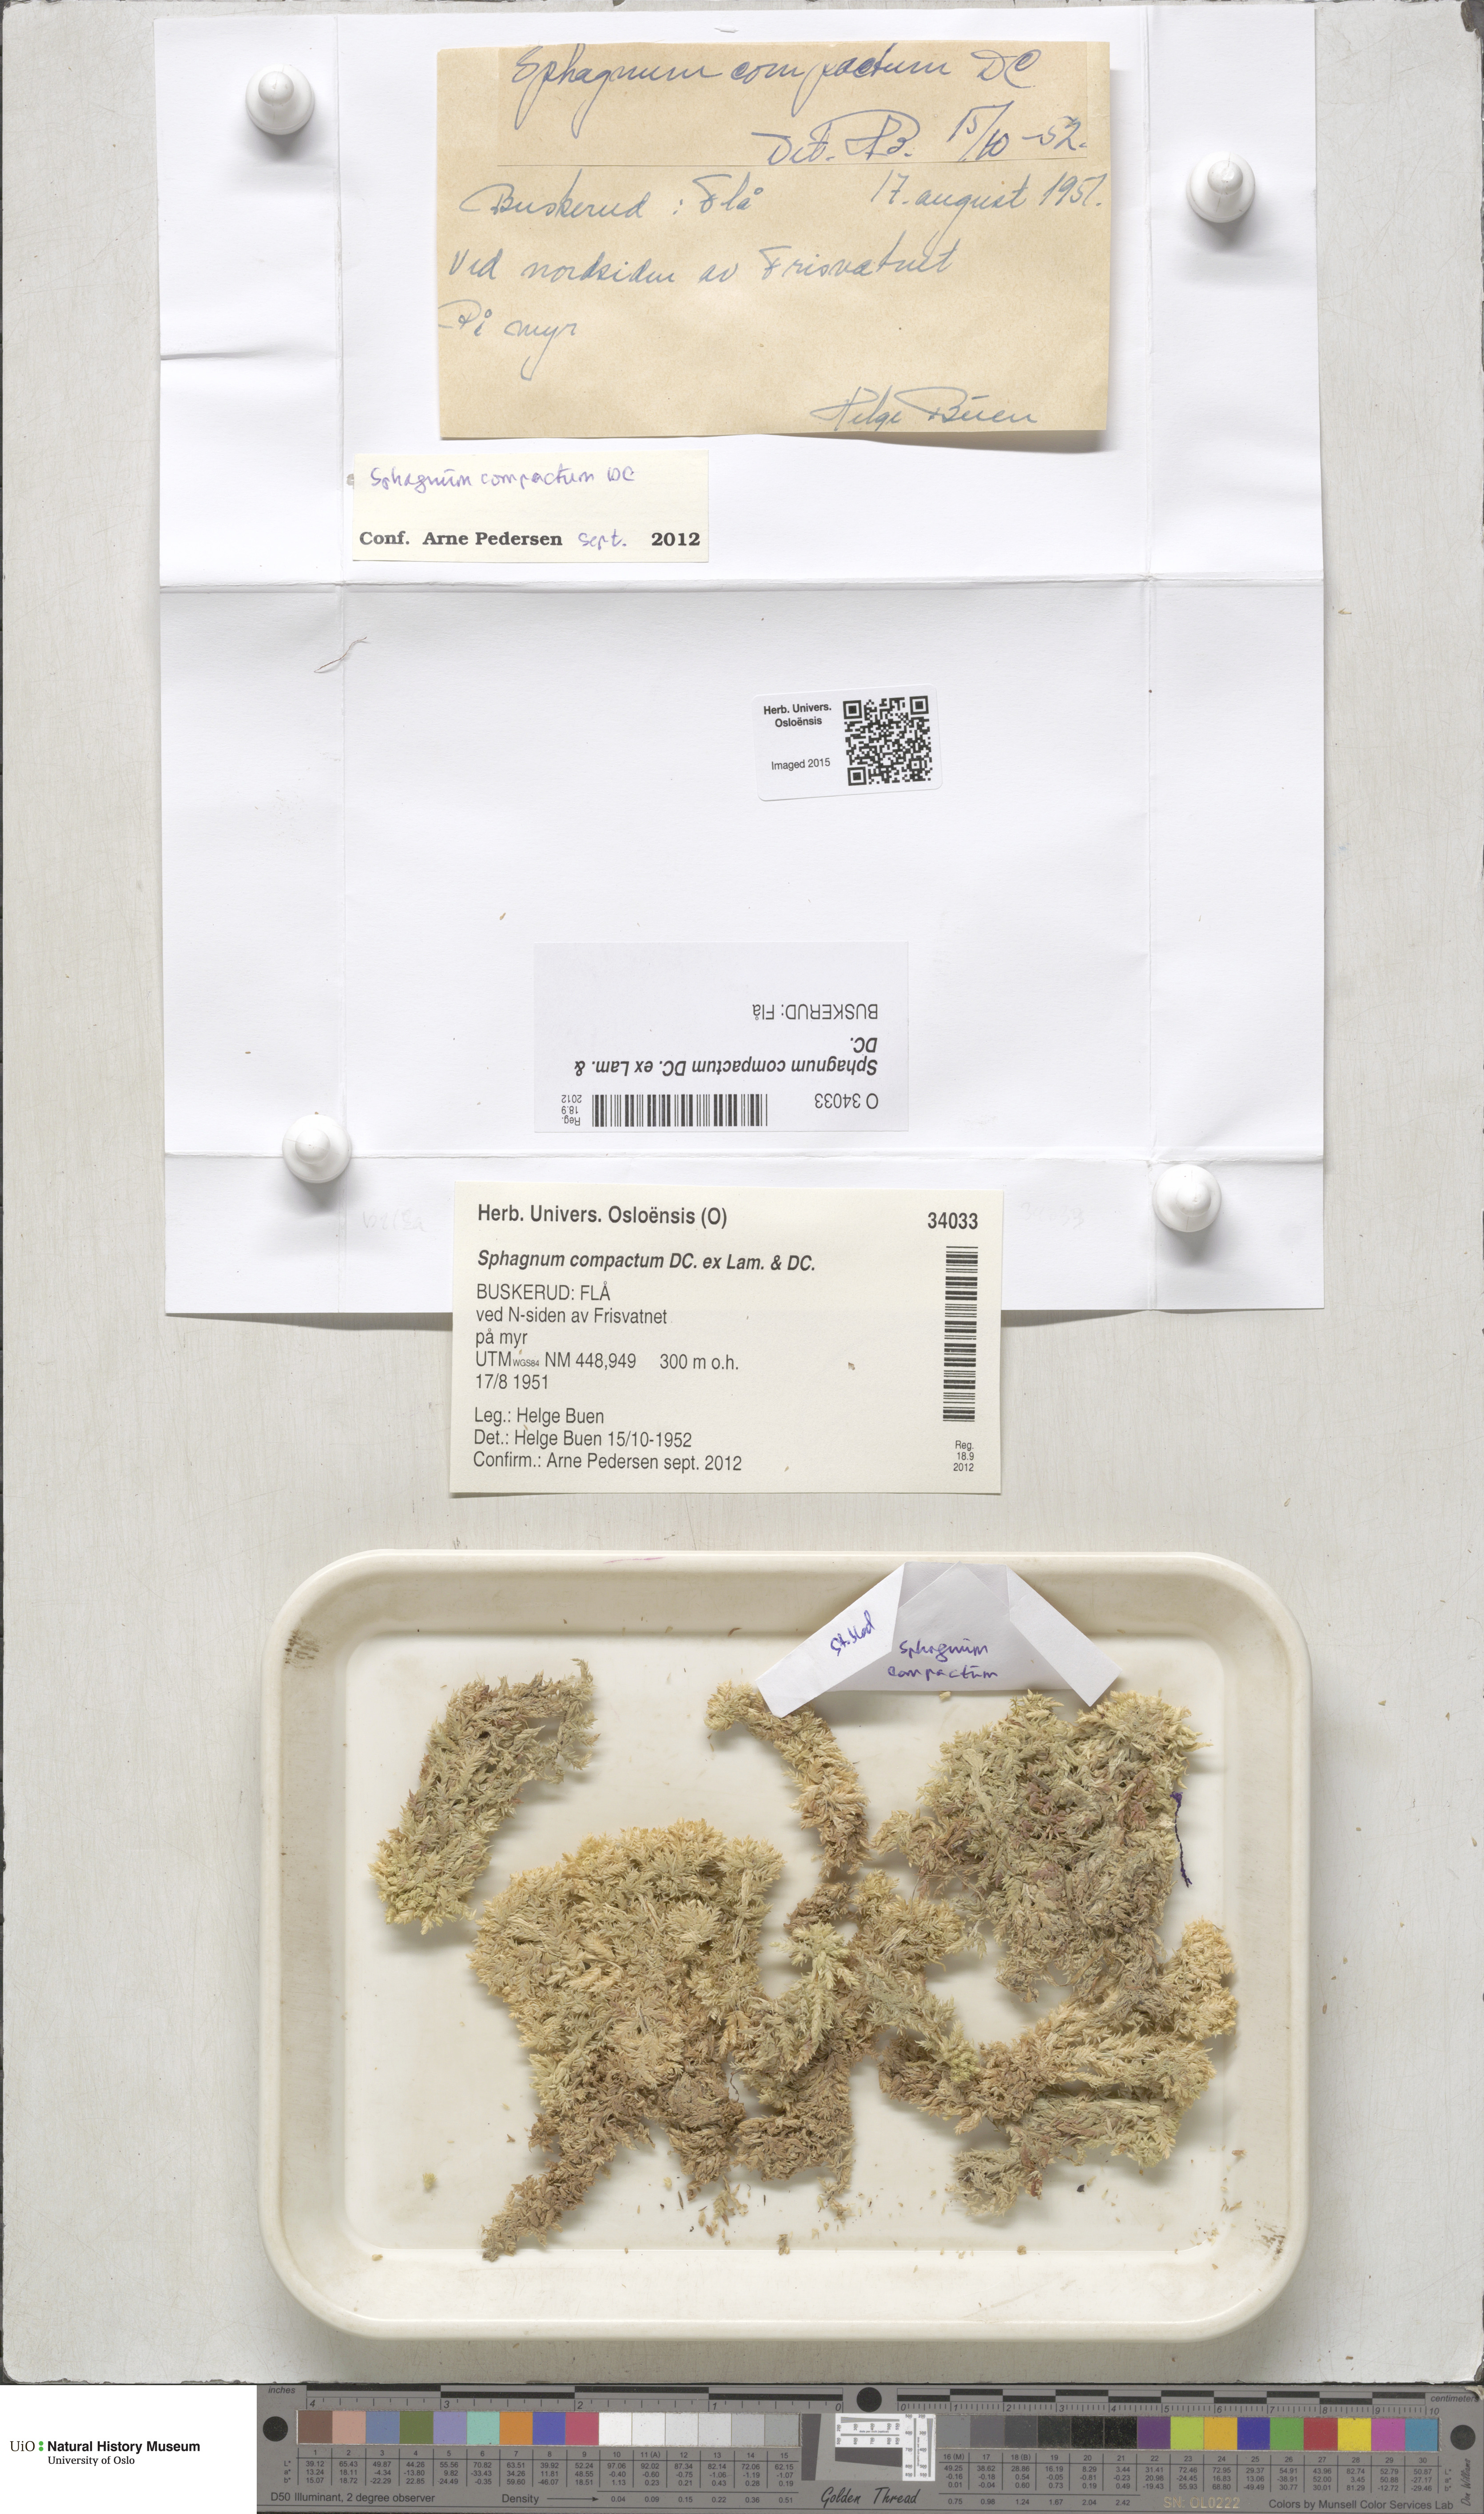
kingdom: Plantae
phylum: Bryophyta
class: Sphagnopsida
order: Sphagnales
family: Sphagnaceae
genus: Sphagnum
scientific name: Sphagnum compactum
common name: Compact peat moss
